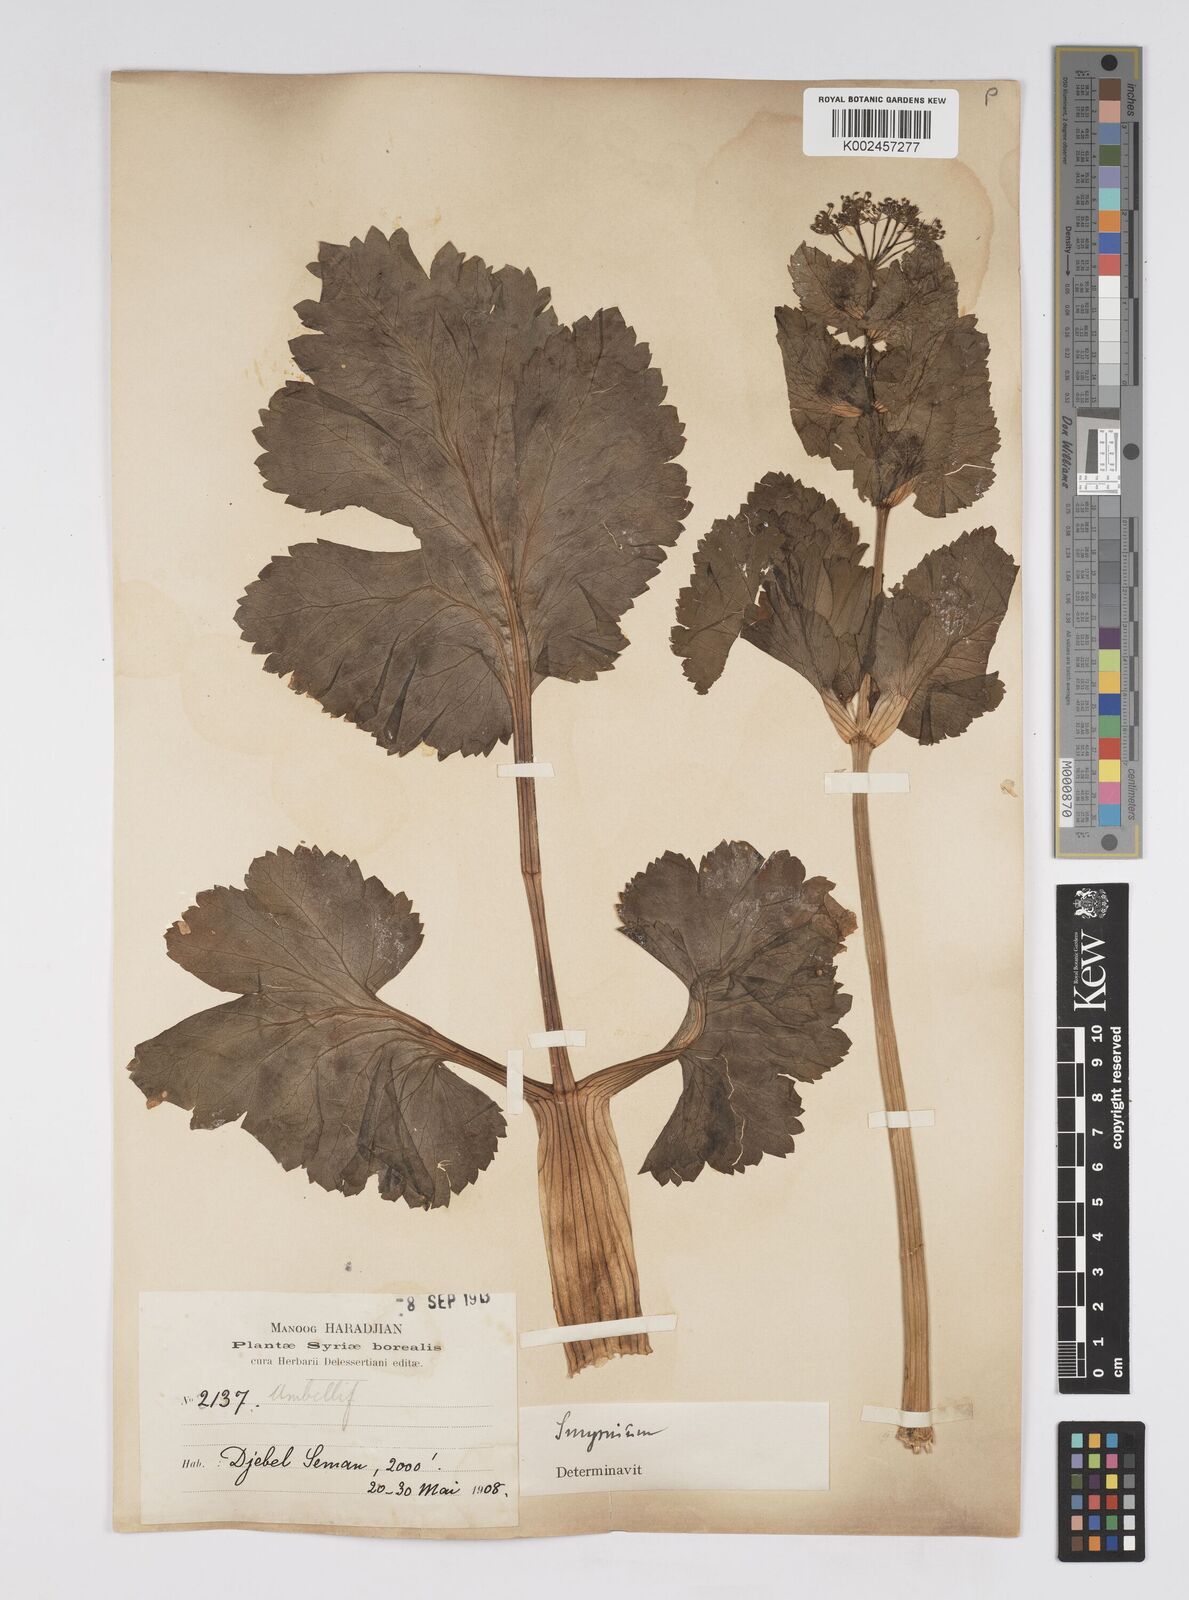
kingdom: Plantae
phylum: Tracheophyta
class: Magnoliopsida
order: Apiales
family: Apiaceae
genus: Smyrnium
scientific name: Smyrnium creticum
